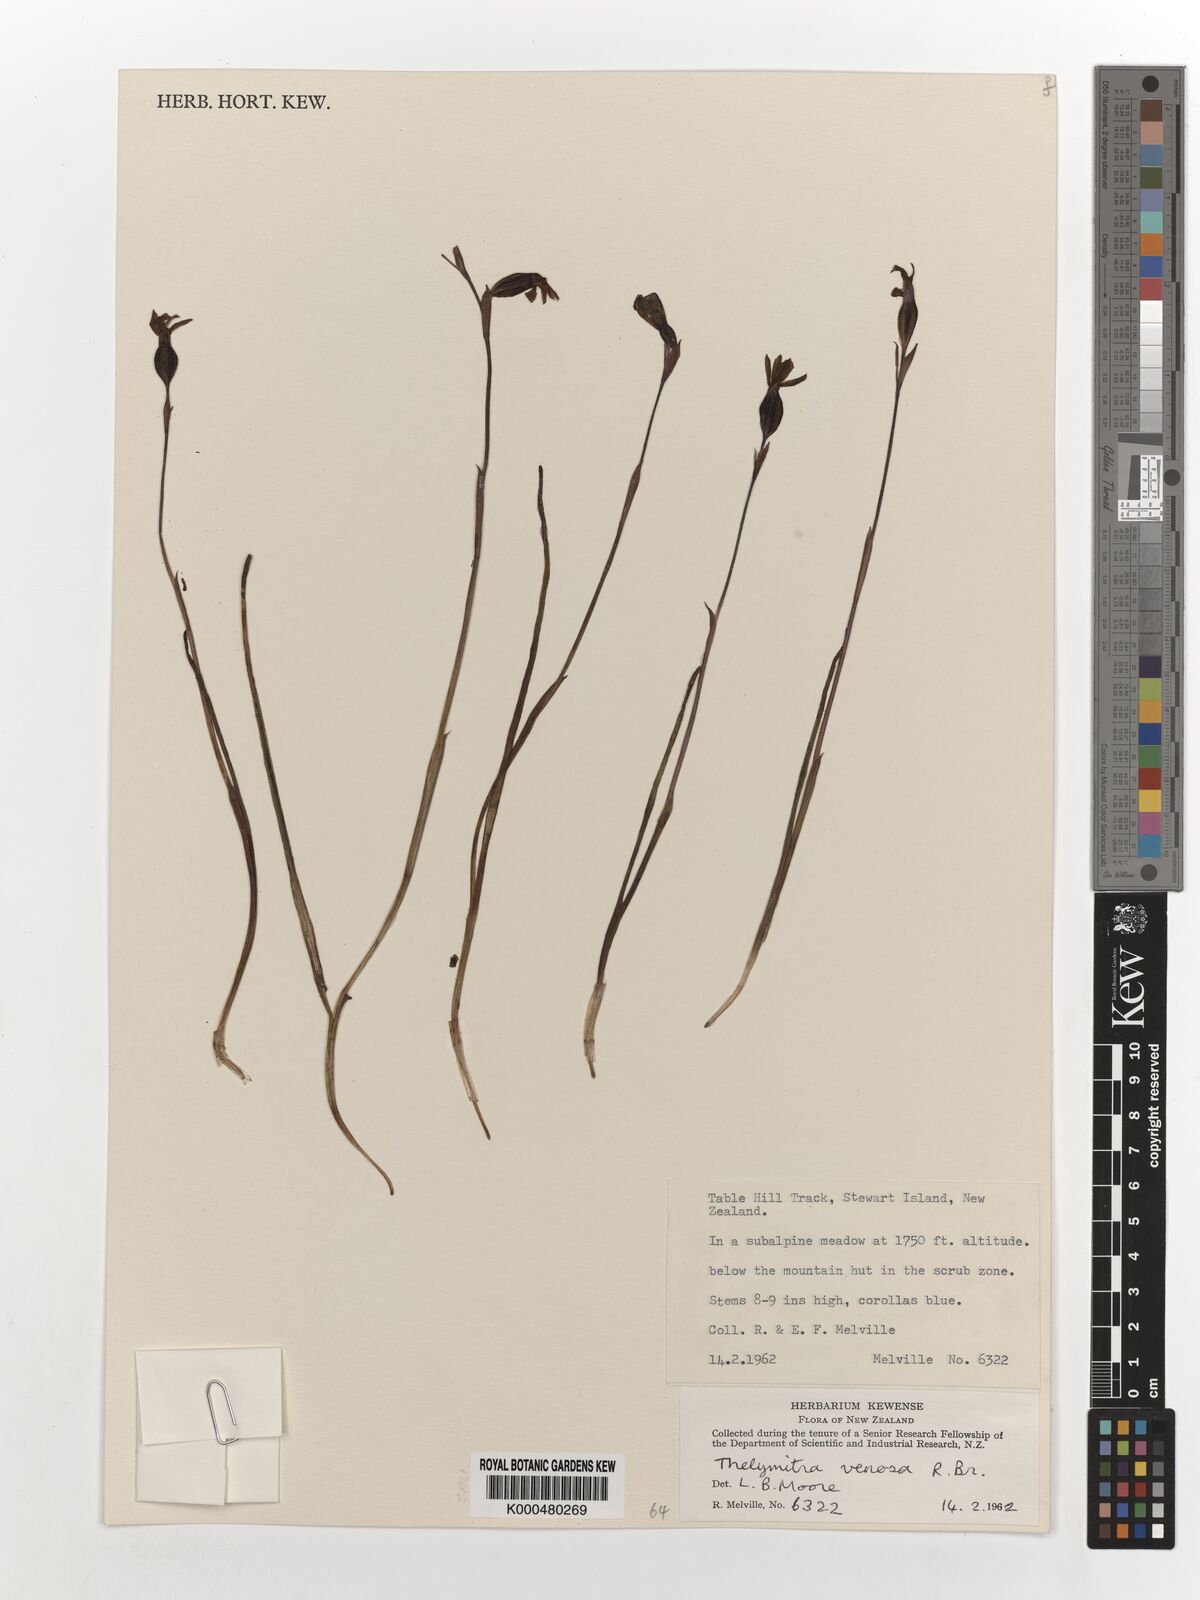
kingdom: Plantae
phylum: Tracheophyta
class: Liliopsida
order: Asparagales
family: Orchidaceae
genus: Thelymitra
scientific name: Thelymitra cyanea
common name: Blue sun-orchid
